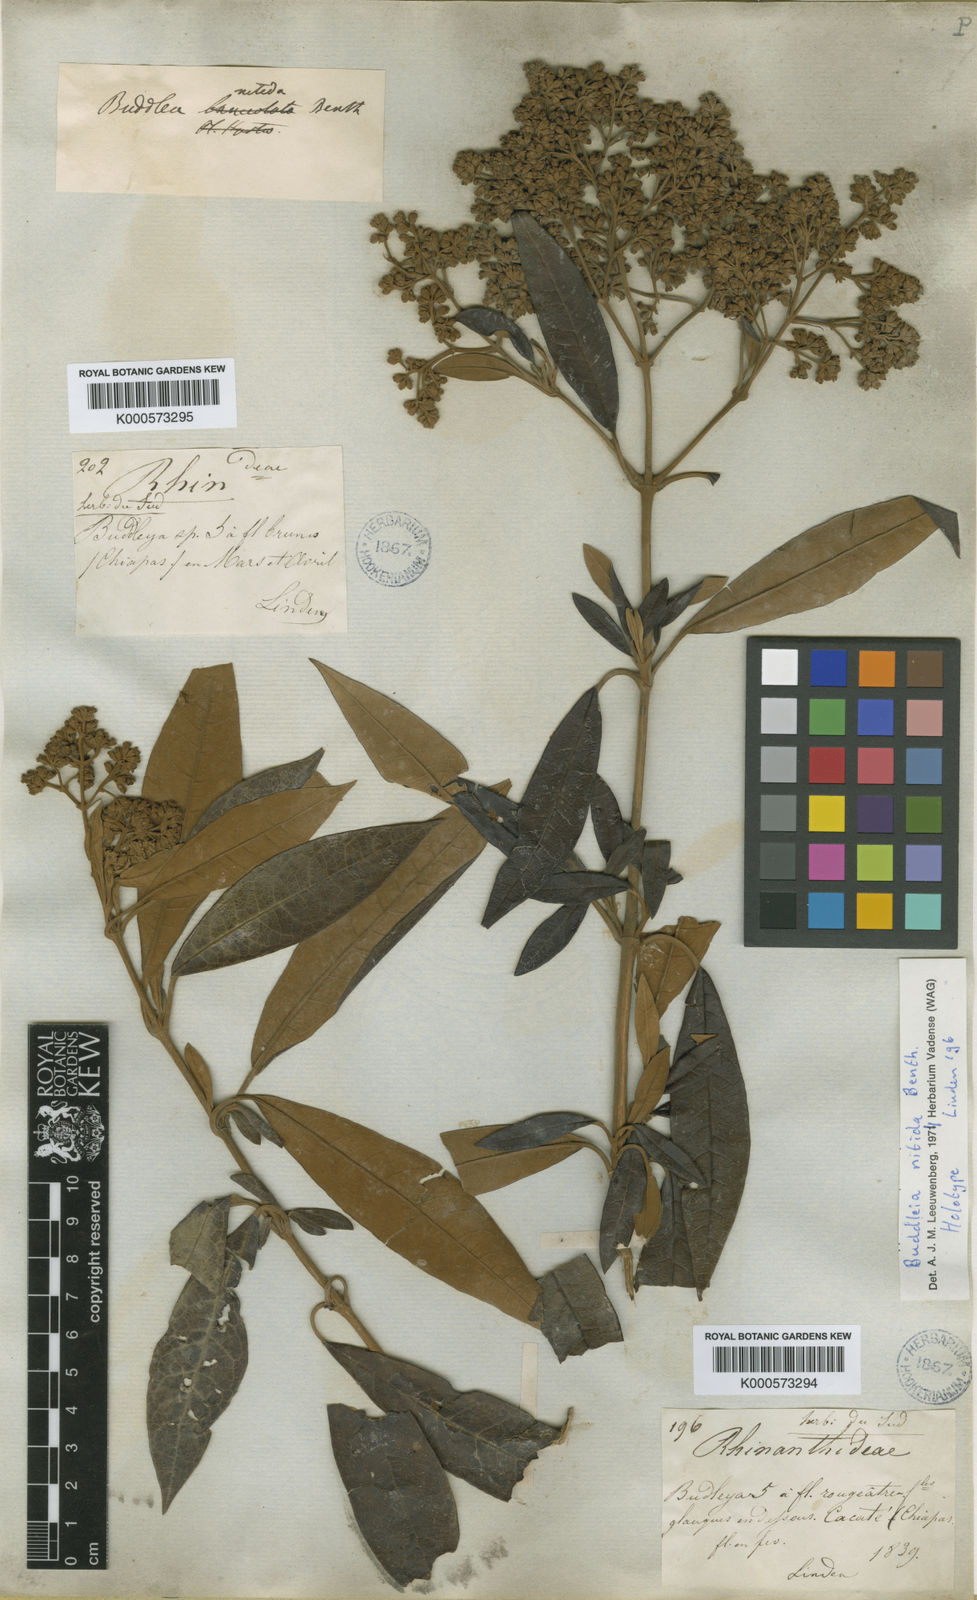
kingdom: Plantae
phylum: Tracheophyta
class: Magnoliopsida
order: Lamiales
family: Scrophulariaceae
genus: Buddleja
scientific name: Buddleja nitida
